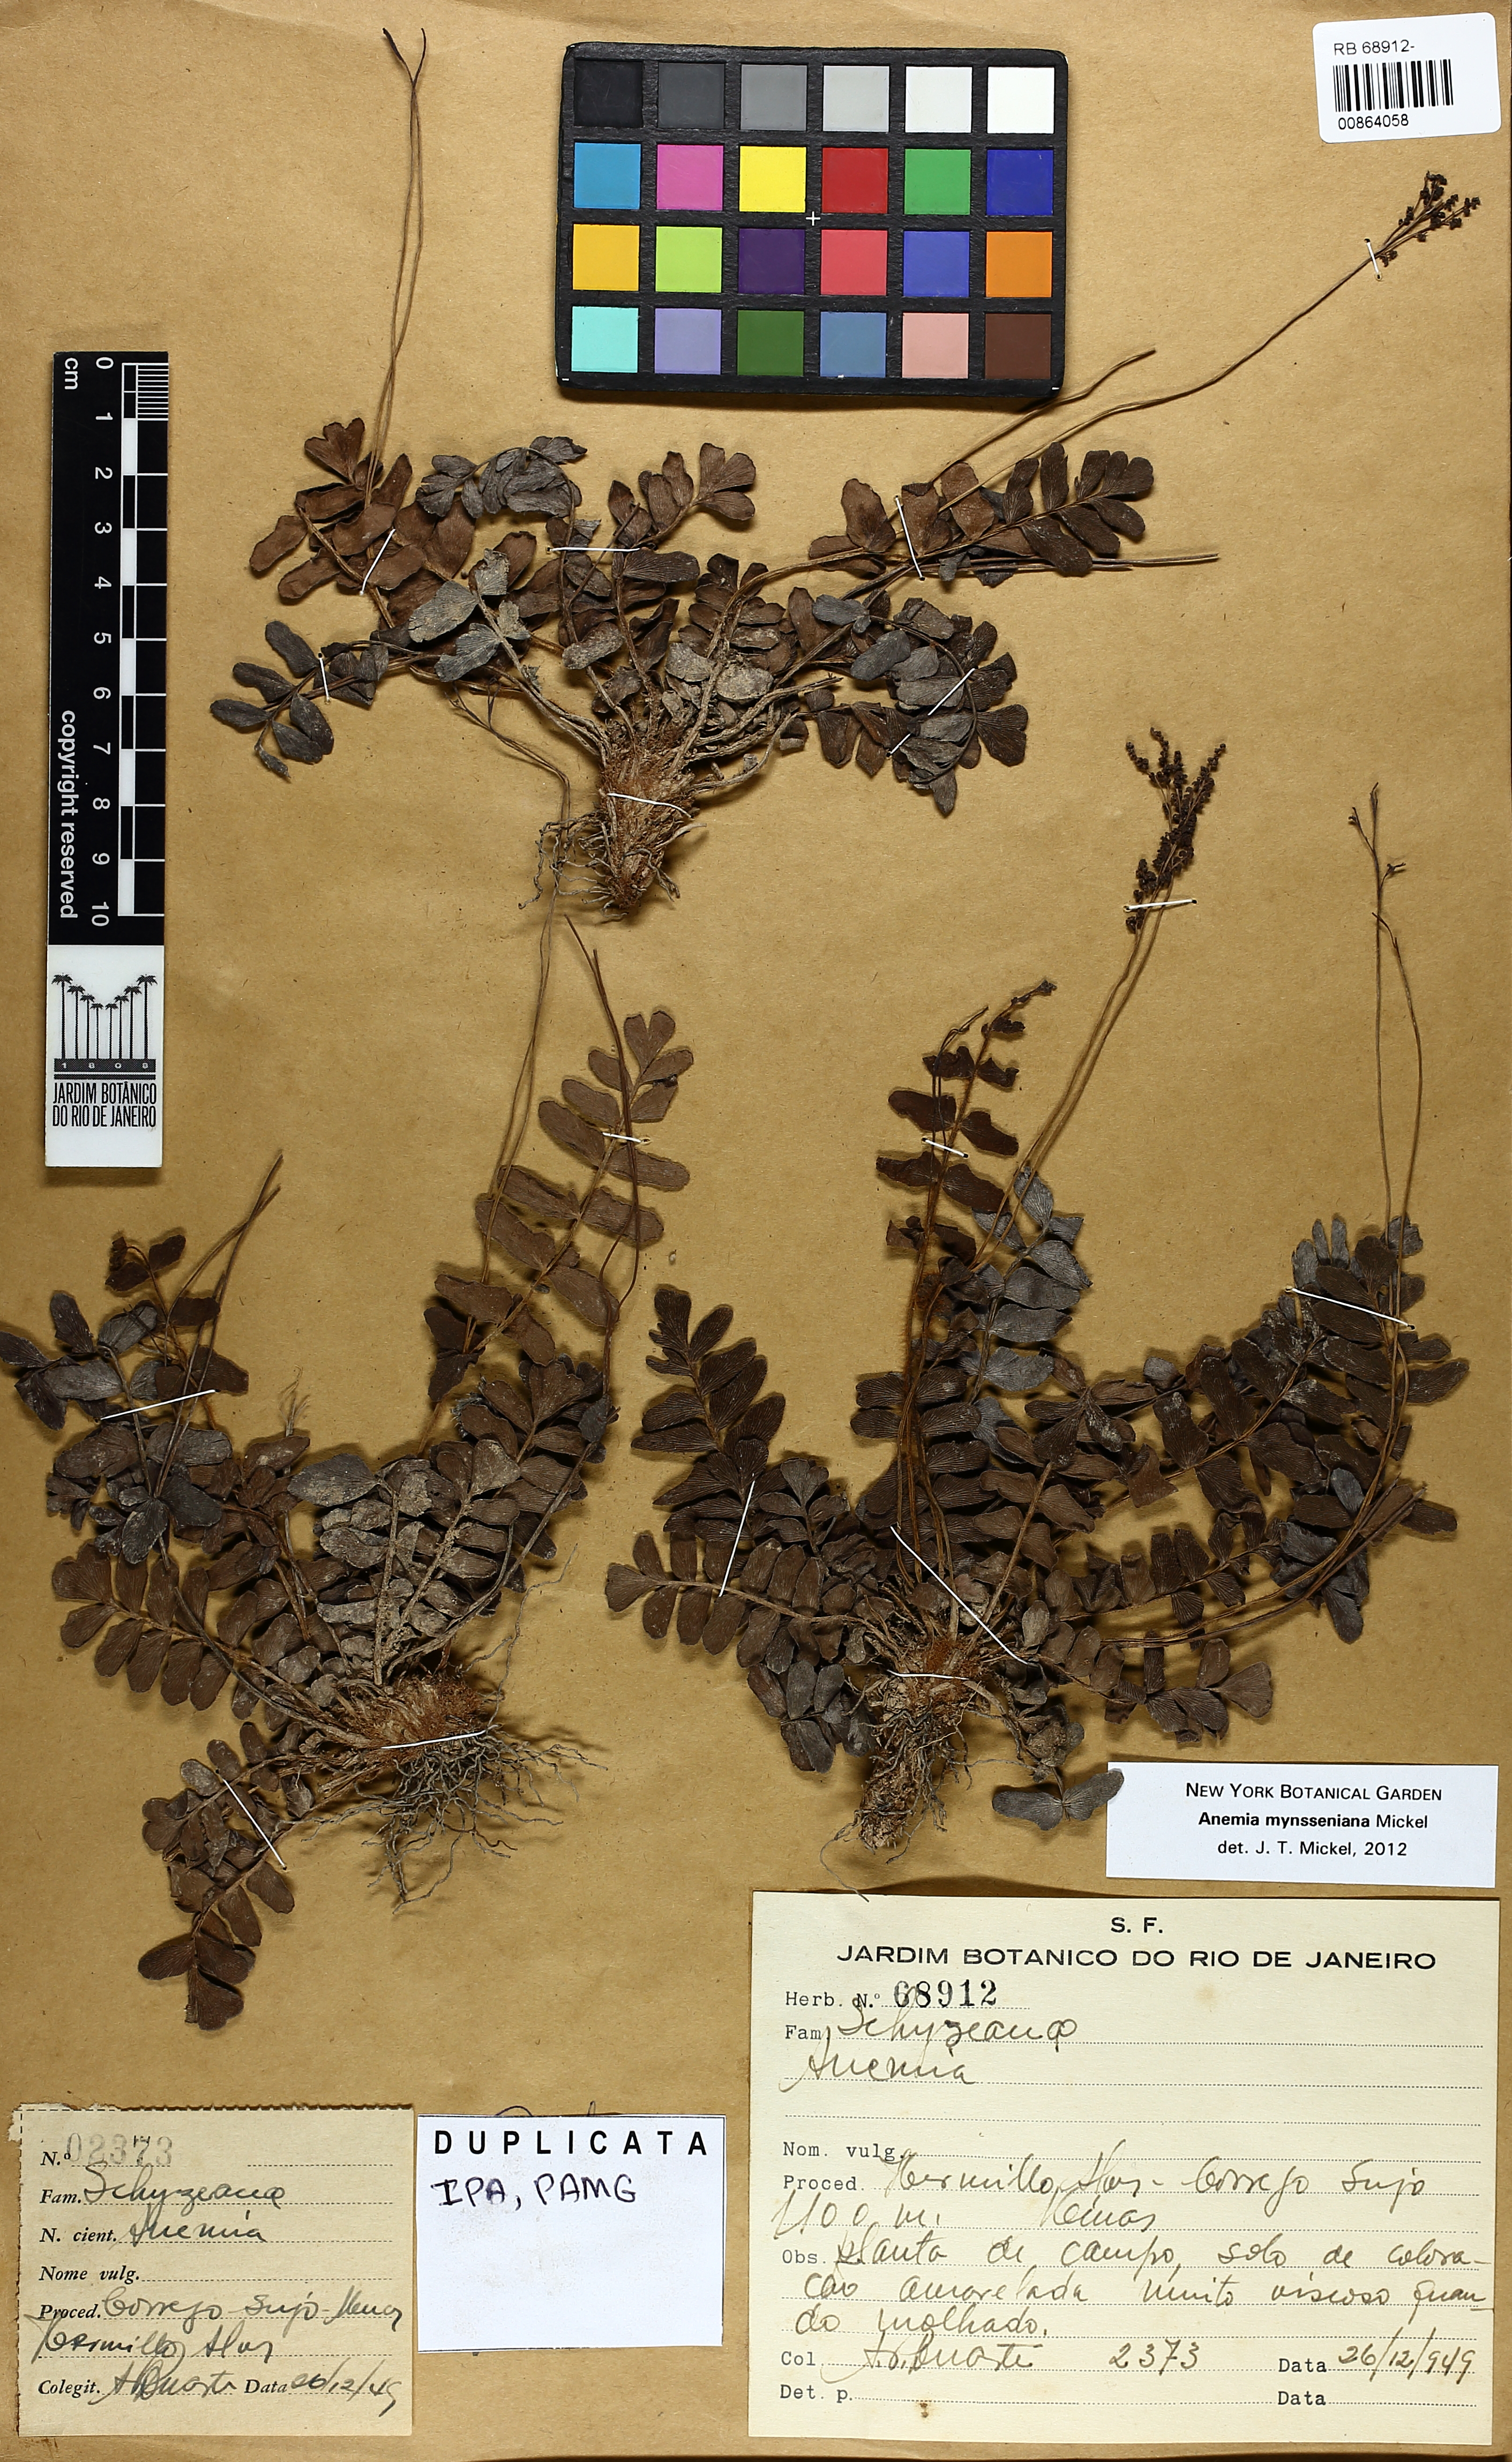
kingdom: Plantae
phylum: Tracheophyta
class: Polypodiopsida
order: Schizaeales
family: Anemiaceae
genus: Anemia
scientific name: Anemia
